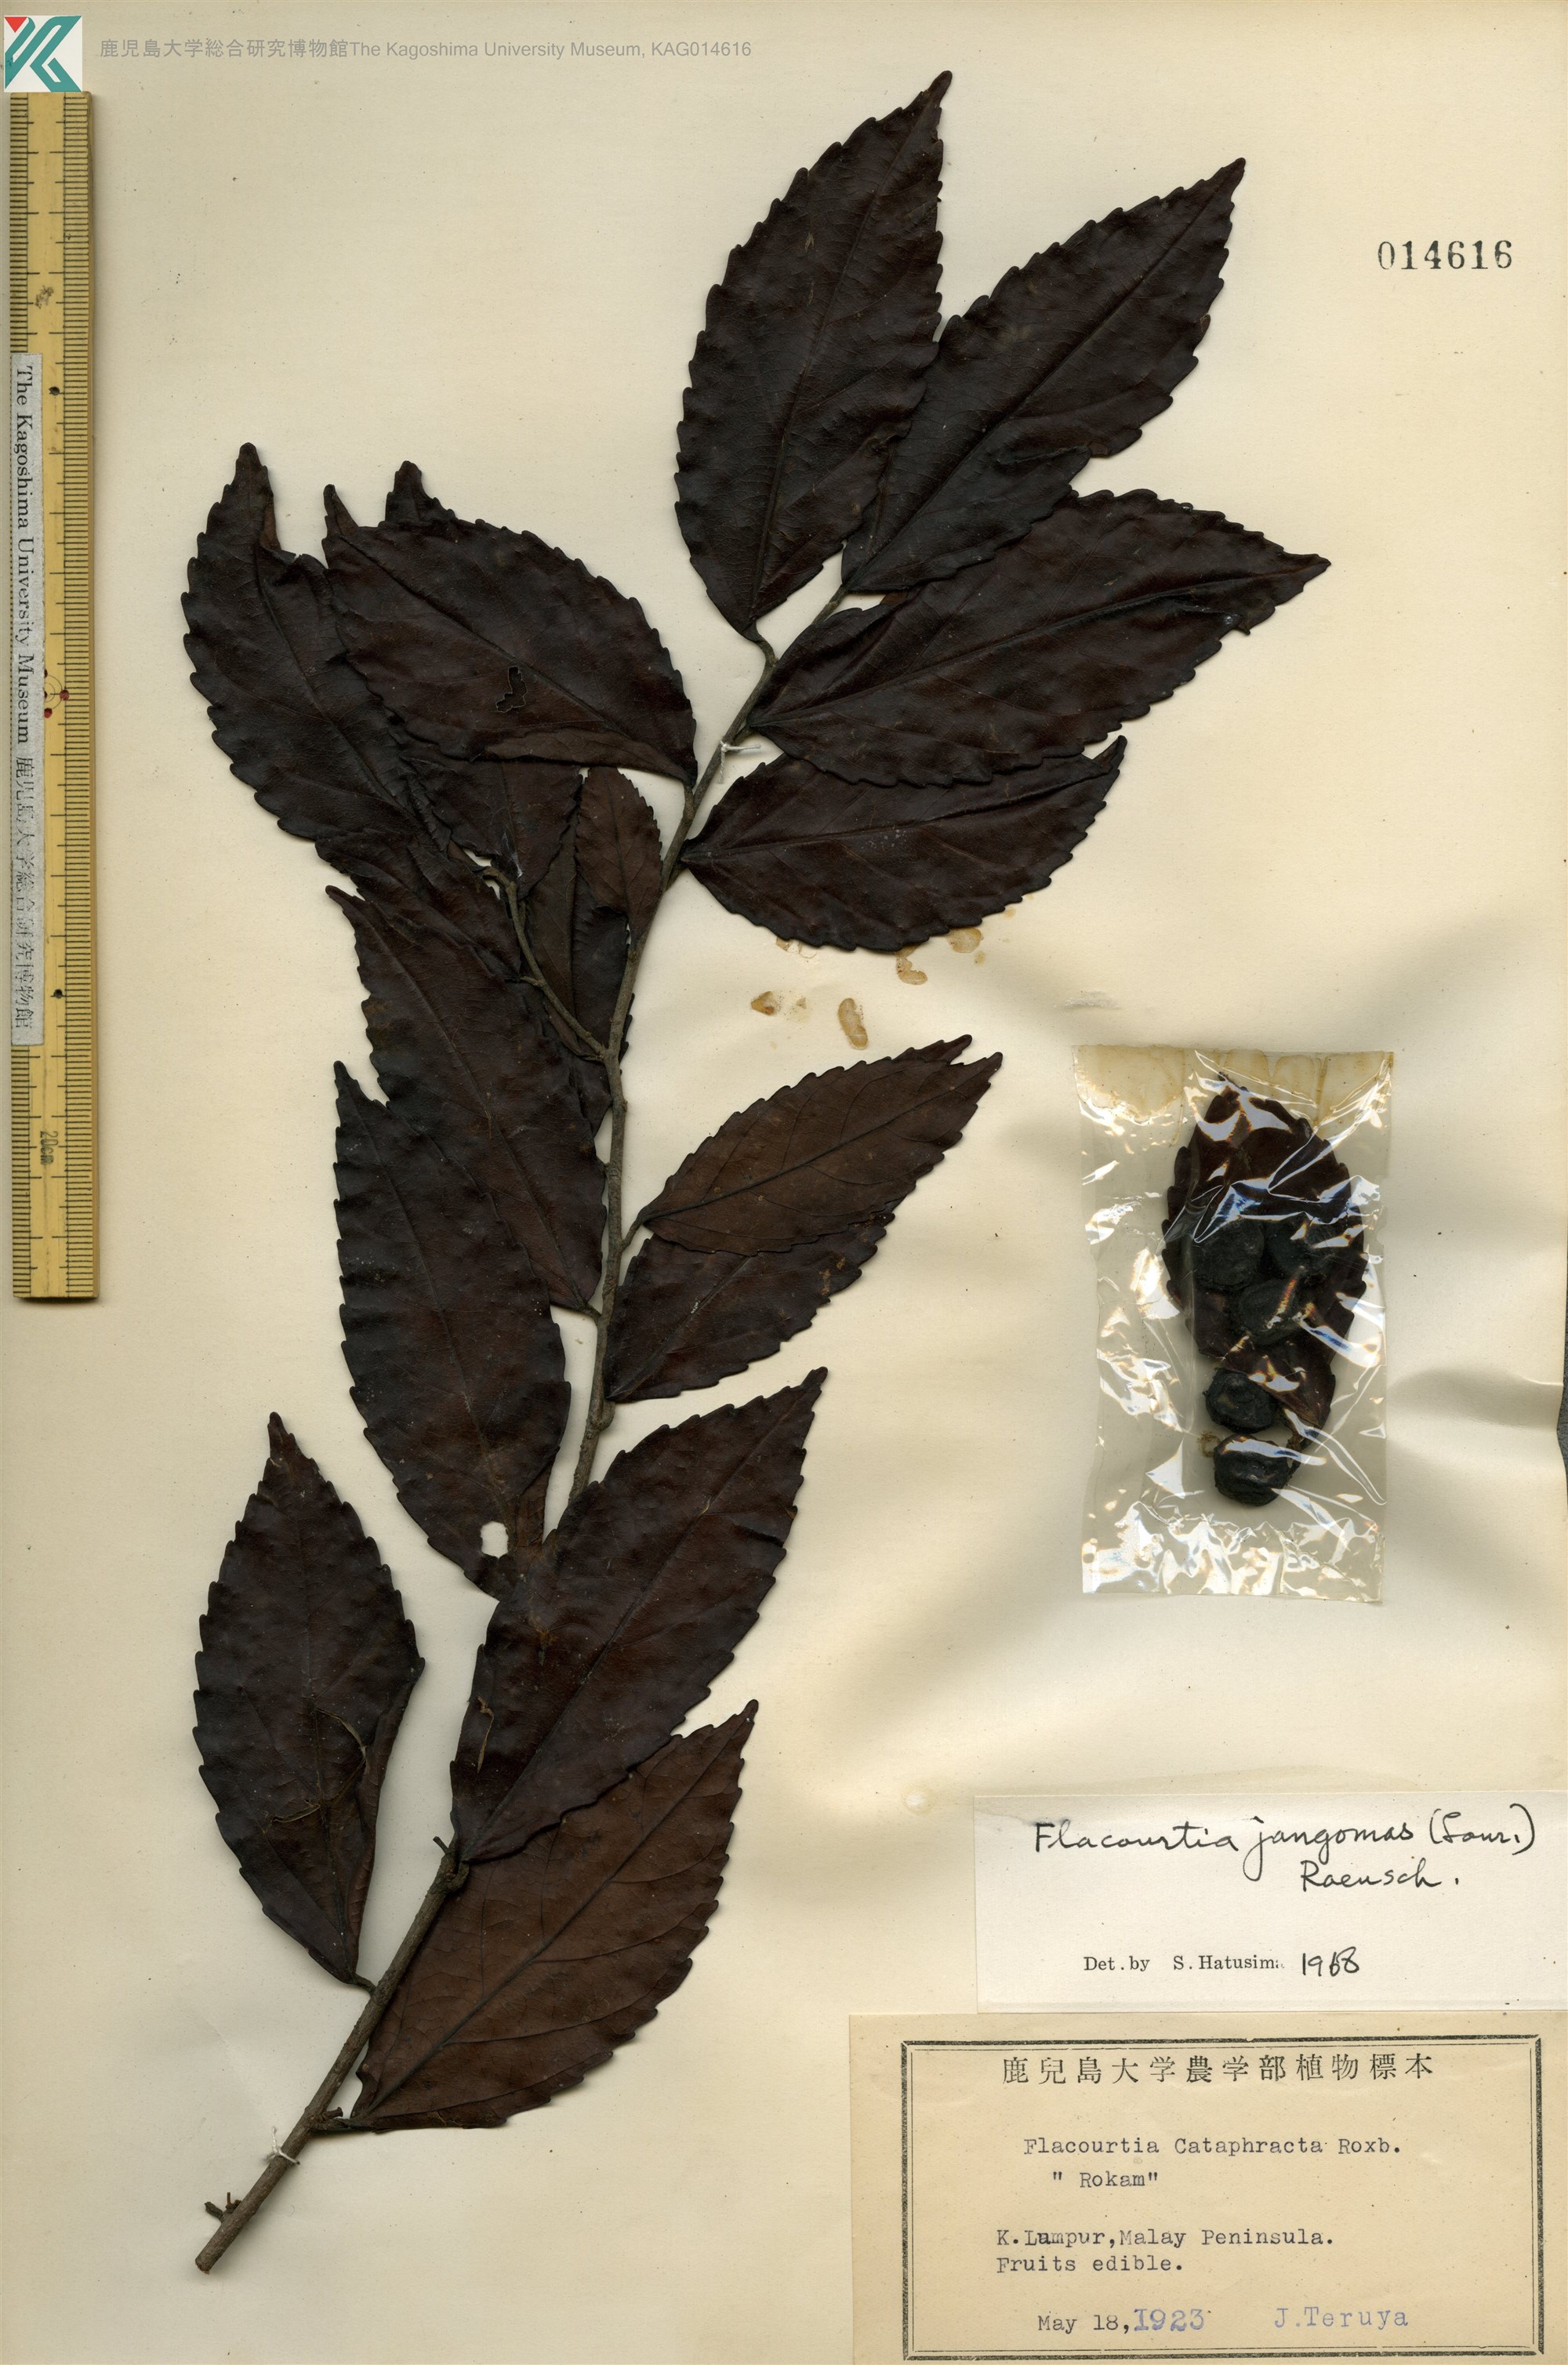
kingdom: Plantae
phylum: Tracheophyta
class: Magnoliopsida
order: Malpighiales
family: Salicaceae
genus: Flacourtia
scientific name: Flacourtia jangomas
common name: Indian-plum
